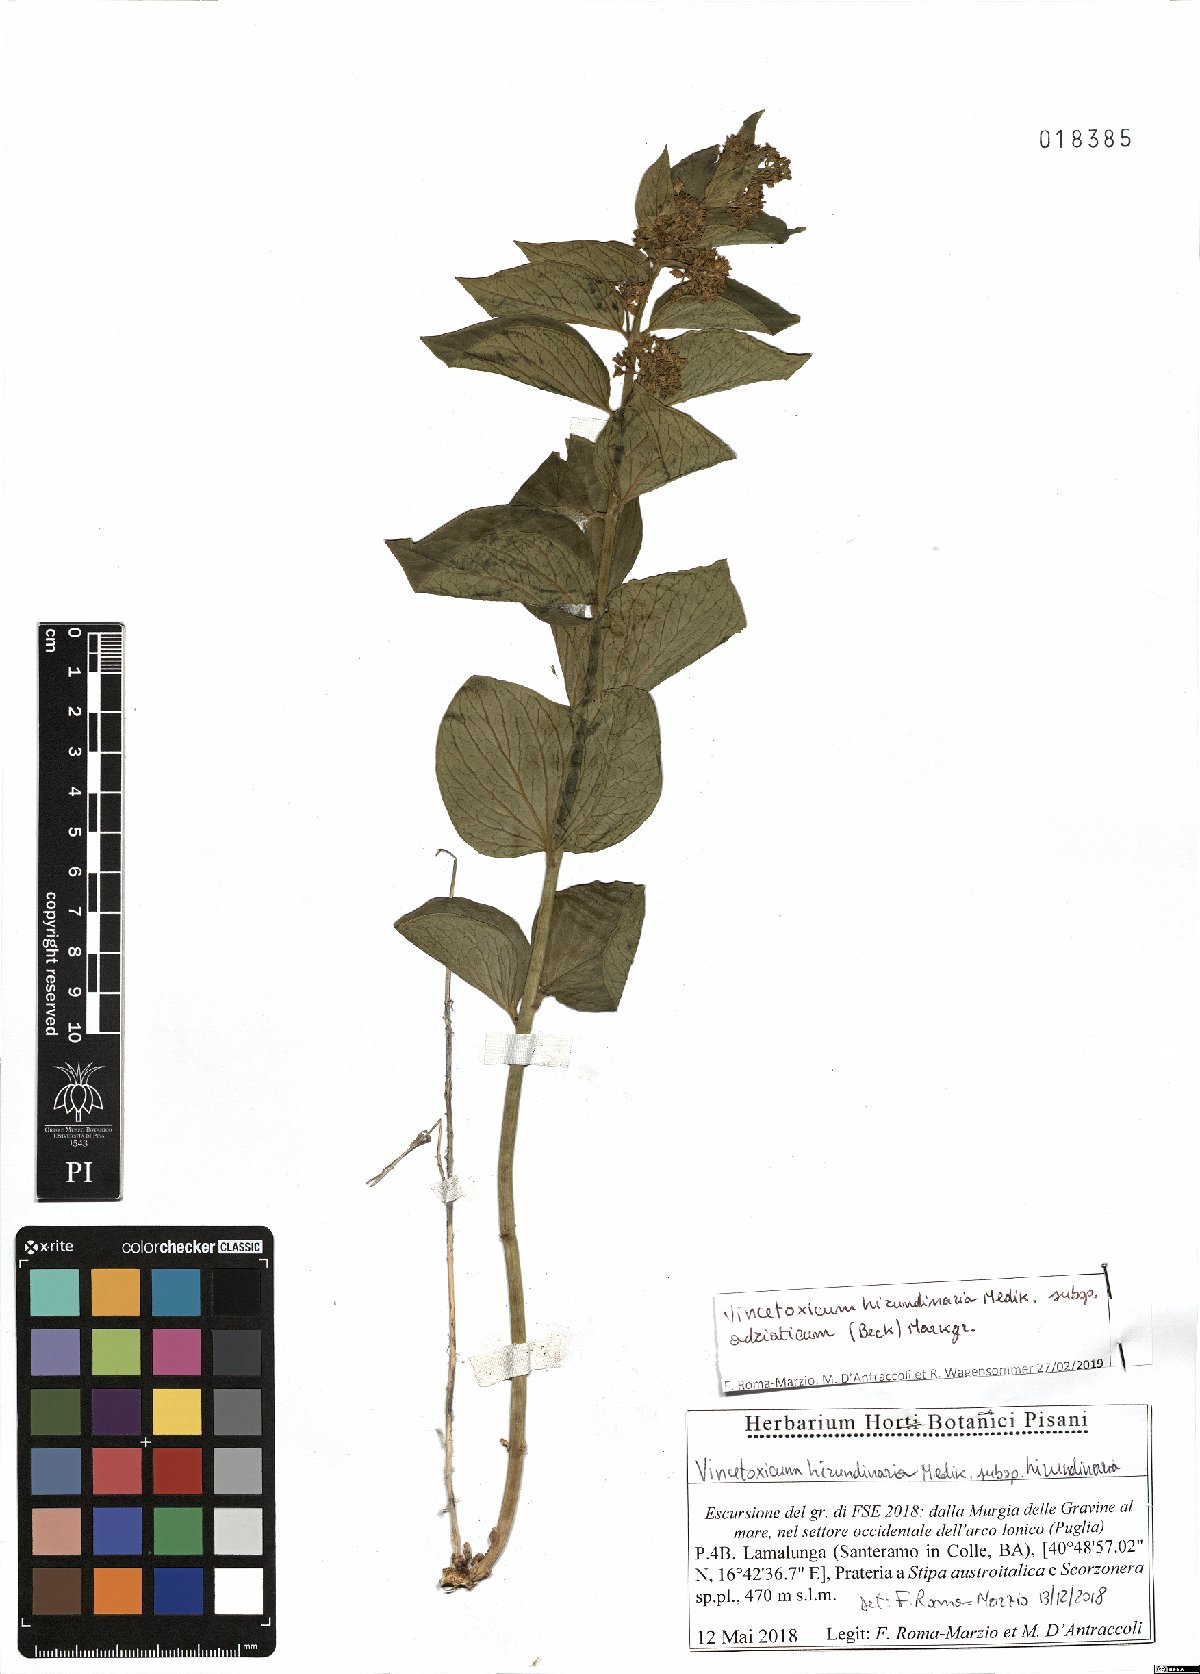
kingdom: Plantae
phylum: Tracheophyta
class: Magnoliopsida
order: Gentianales
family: Apocynaceae
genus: Vincetoxicum
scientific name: Vincetoxicum hirundinaria
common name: White swallowwort
